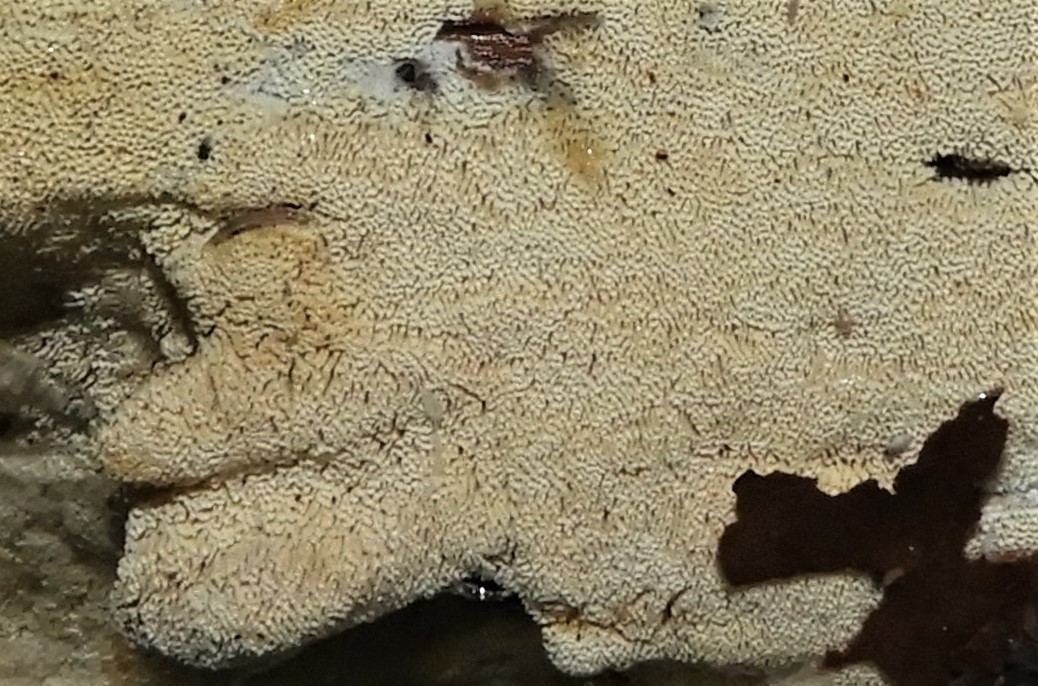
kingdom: Fungi
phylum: Basidiomycota
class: Agaricomycetes
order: Hymenochaetales
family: Schizoporaceae
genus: Xylodon
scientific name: Xylodon subtropicus
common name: labyrint-tandsvamp
